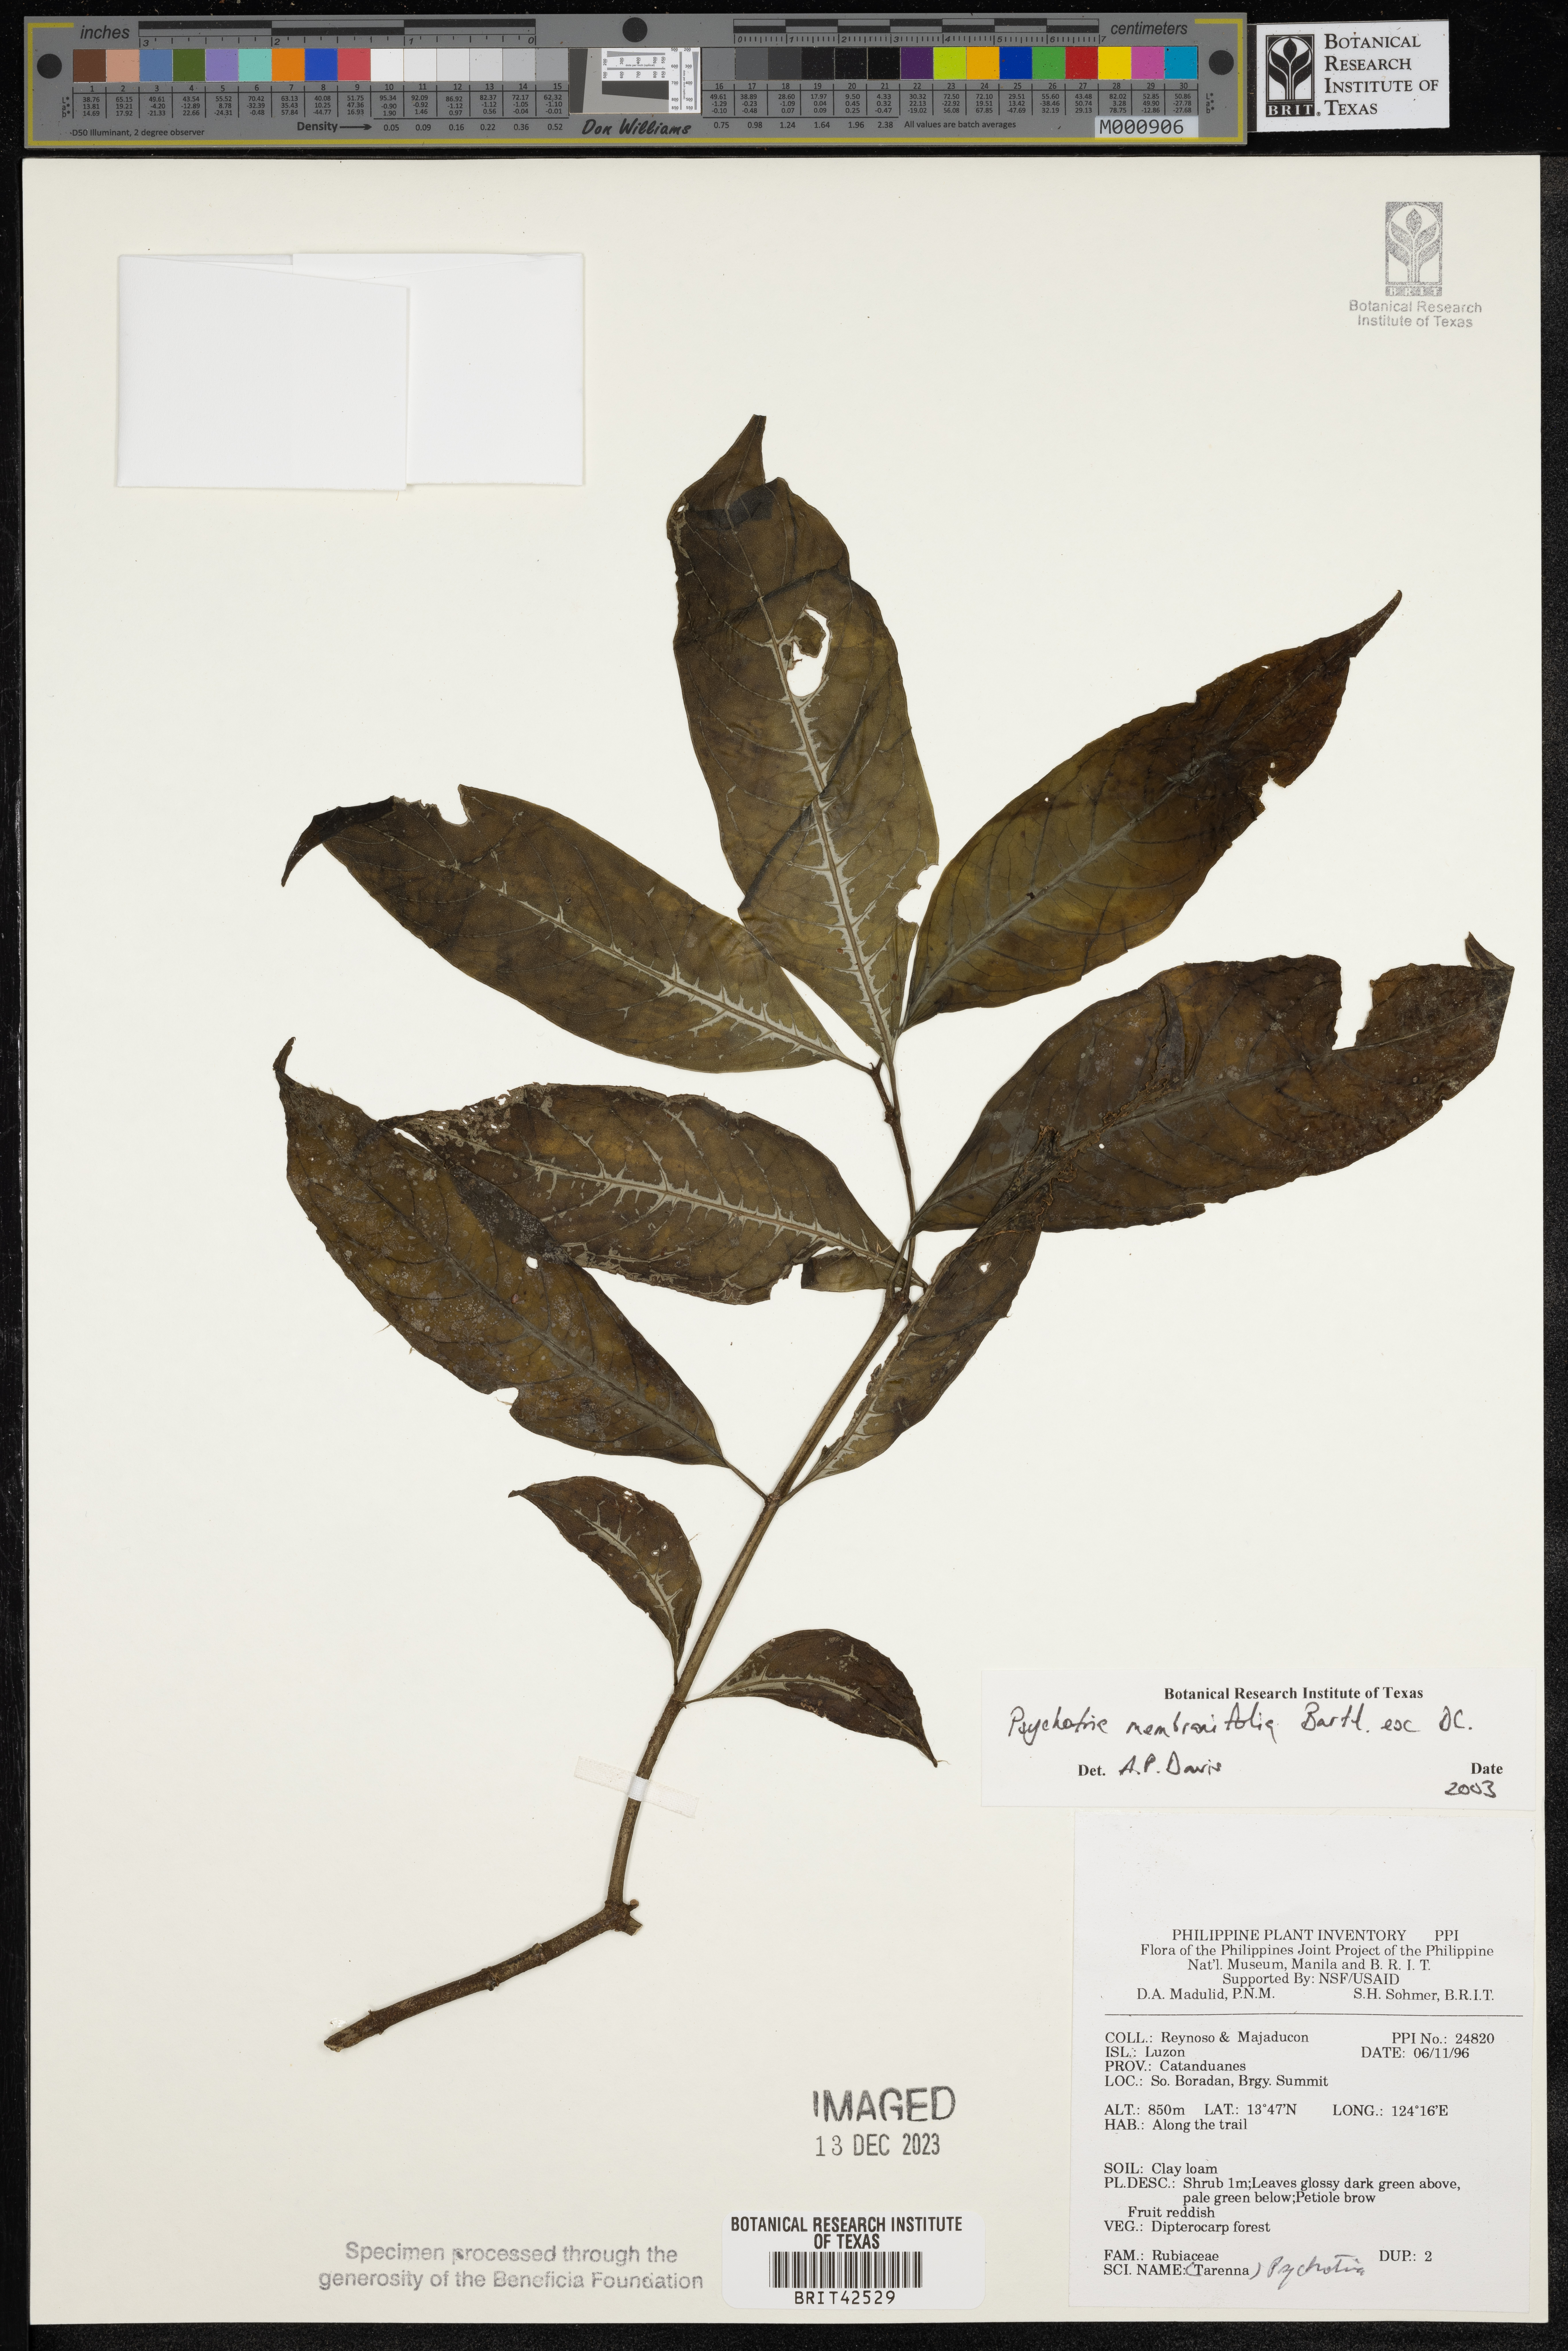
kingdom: Plantae
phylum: Tracheophyta
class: Magnoliopsida
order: Gentianales
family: Rubiaceae
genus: Eumachia
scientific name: Eumachia membranifolia
